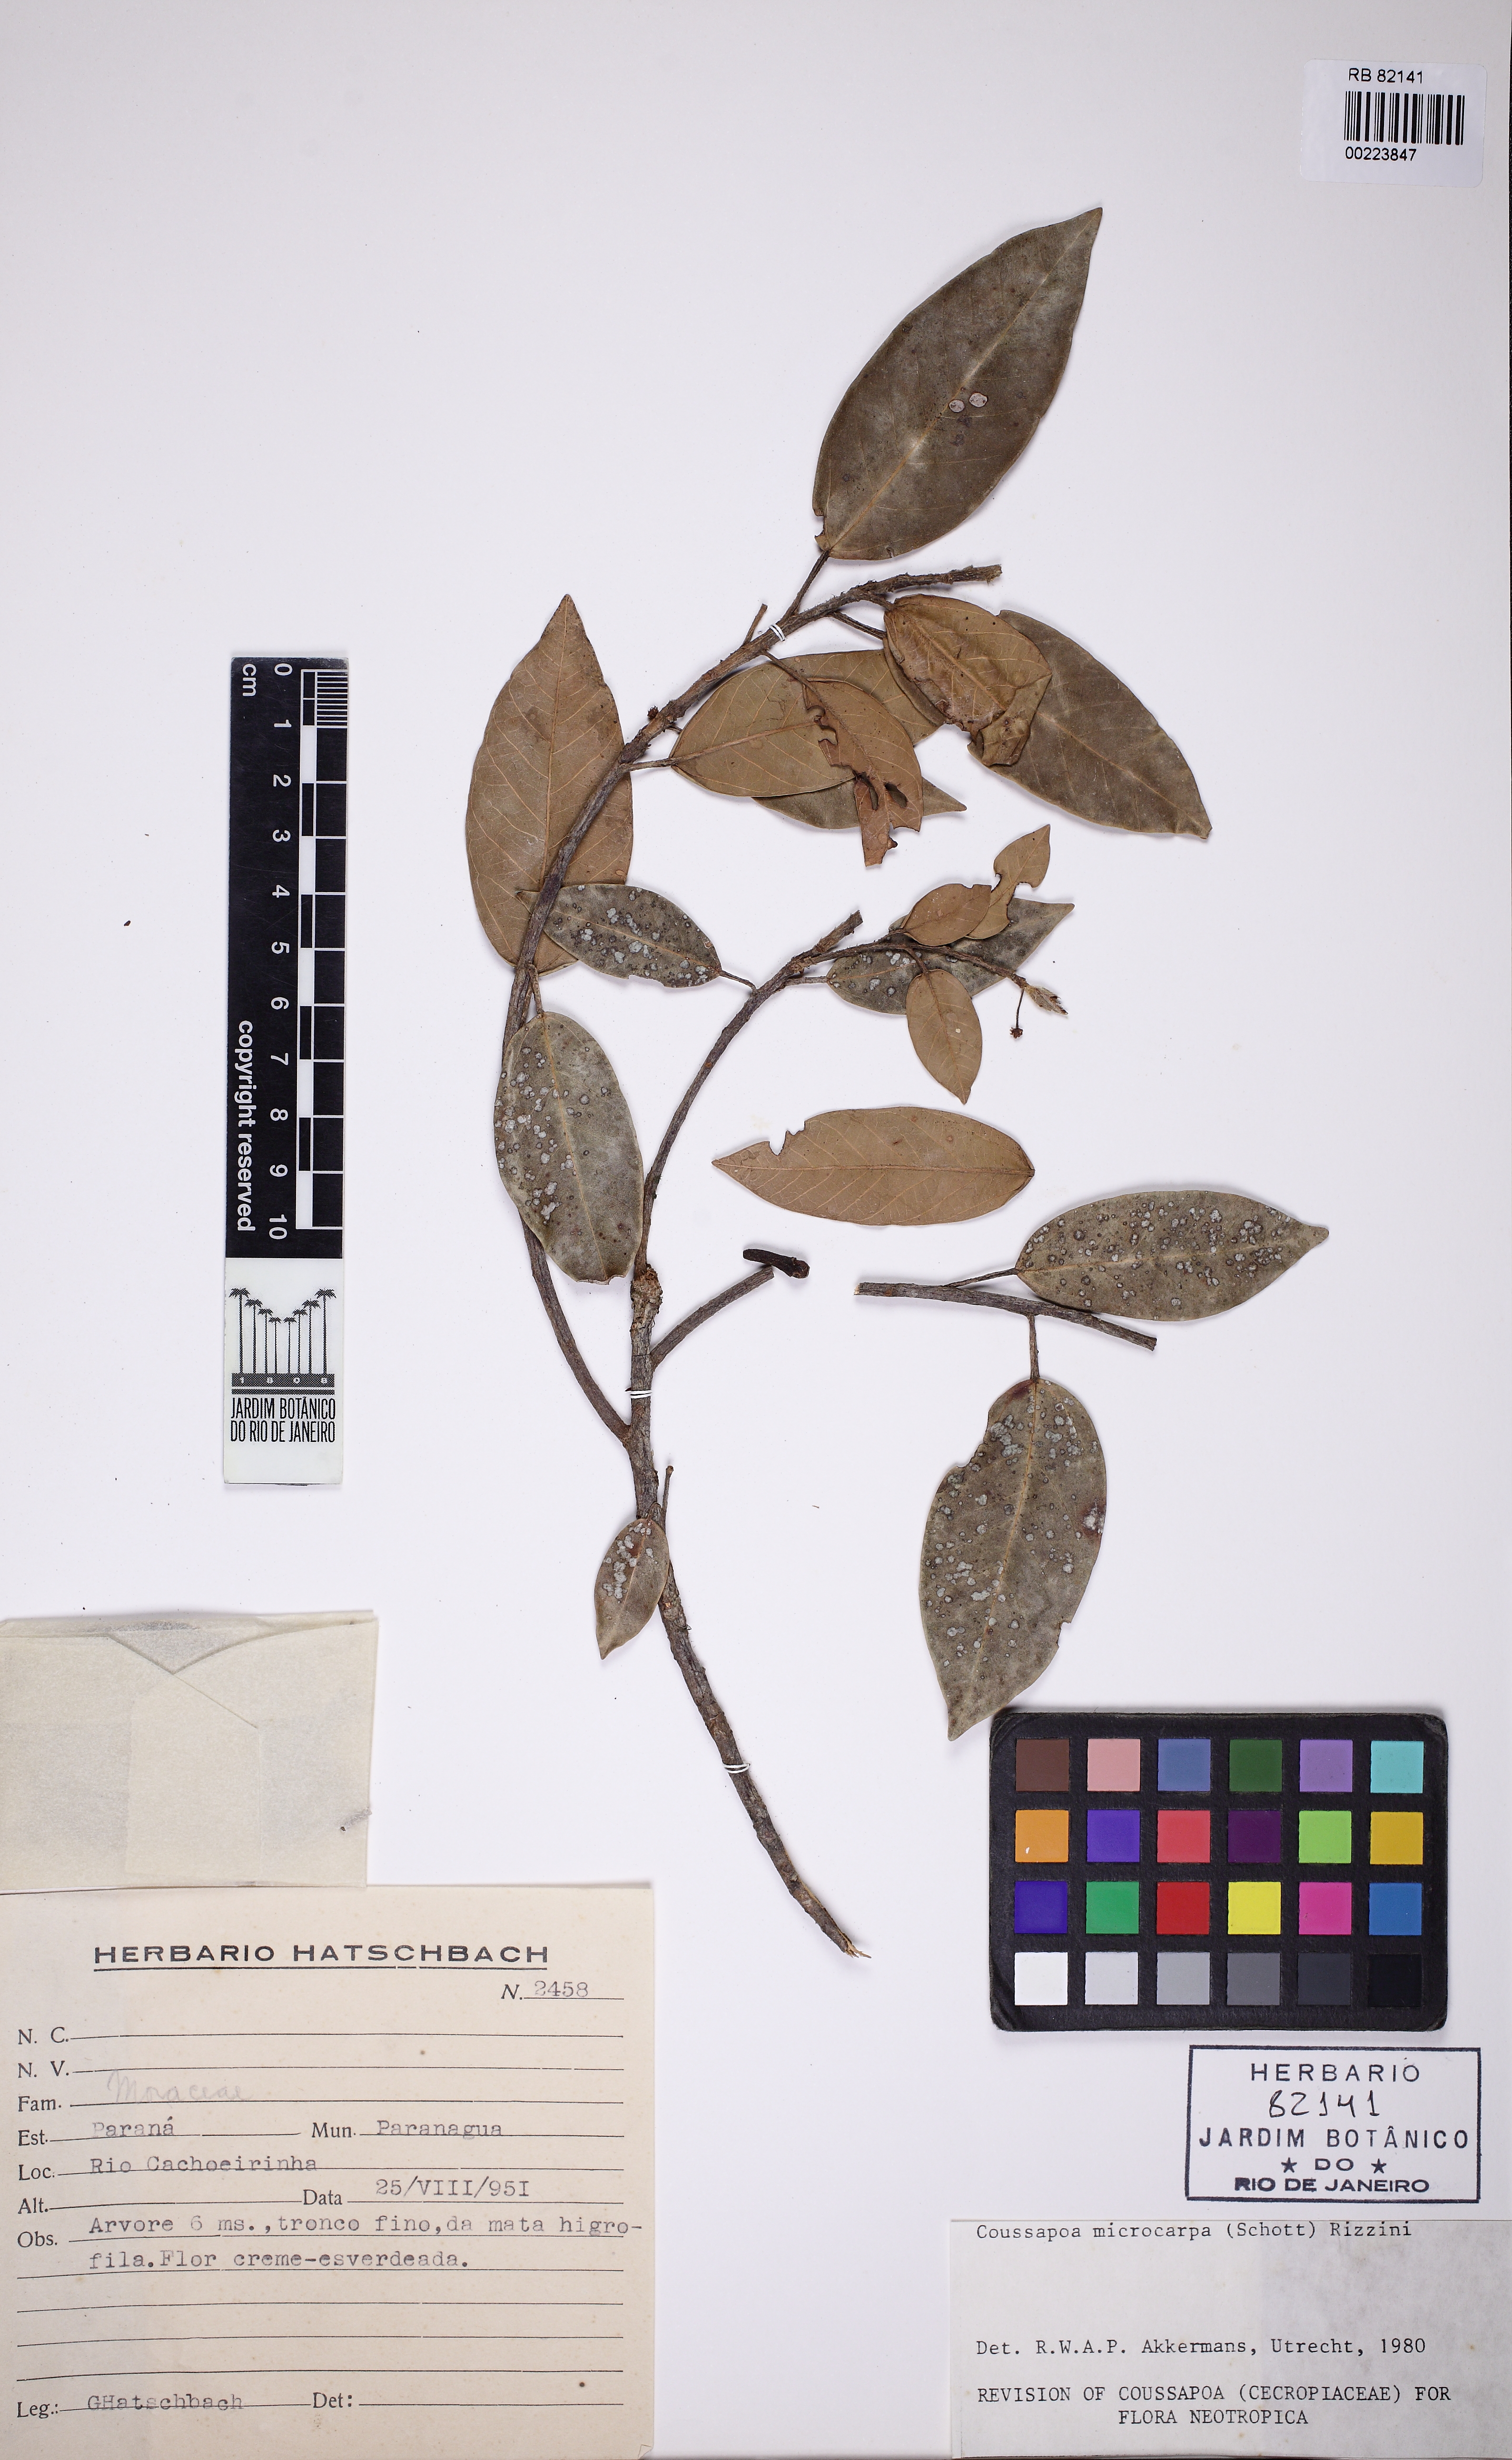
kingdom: Plantae
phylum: Tracheophyta
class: Magnoliopsida
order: Rosales
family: Urticaceae
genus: Coussapoa
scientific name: Coussapoa microcarpa
